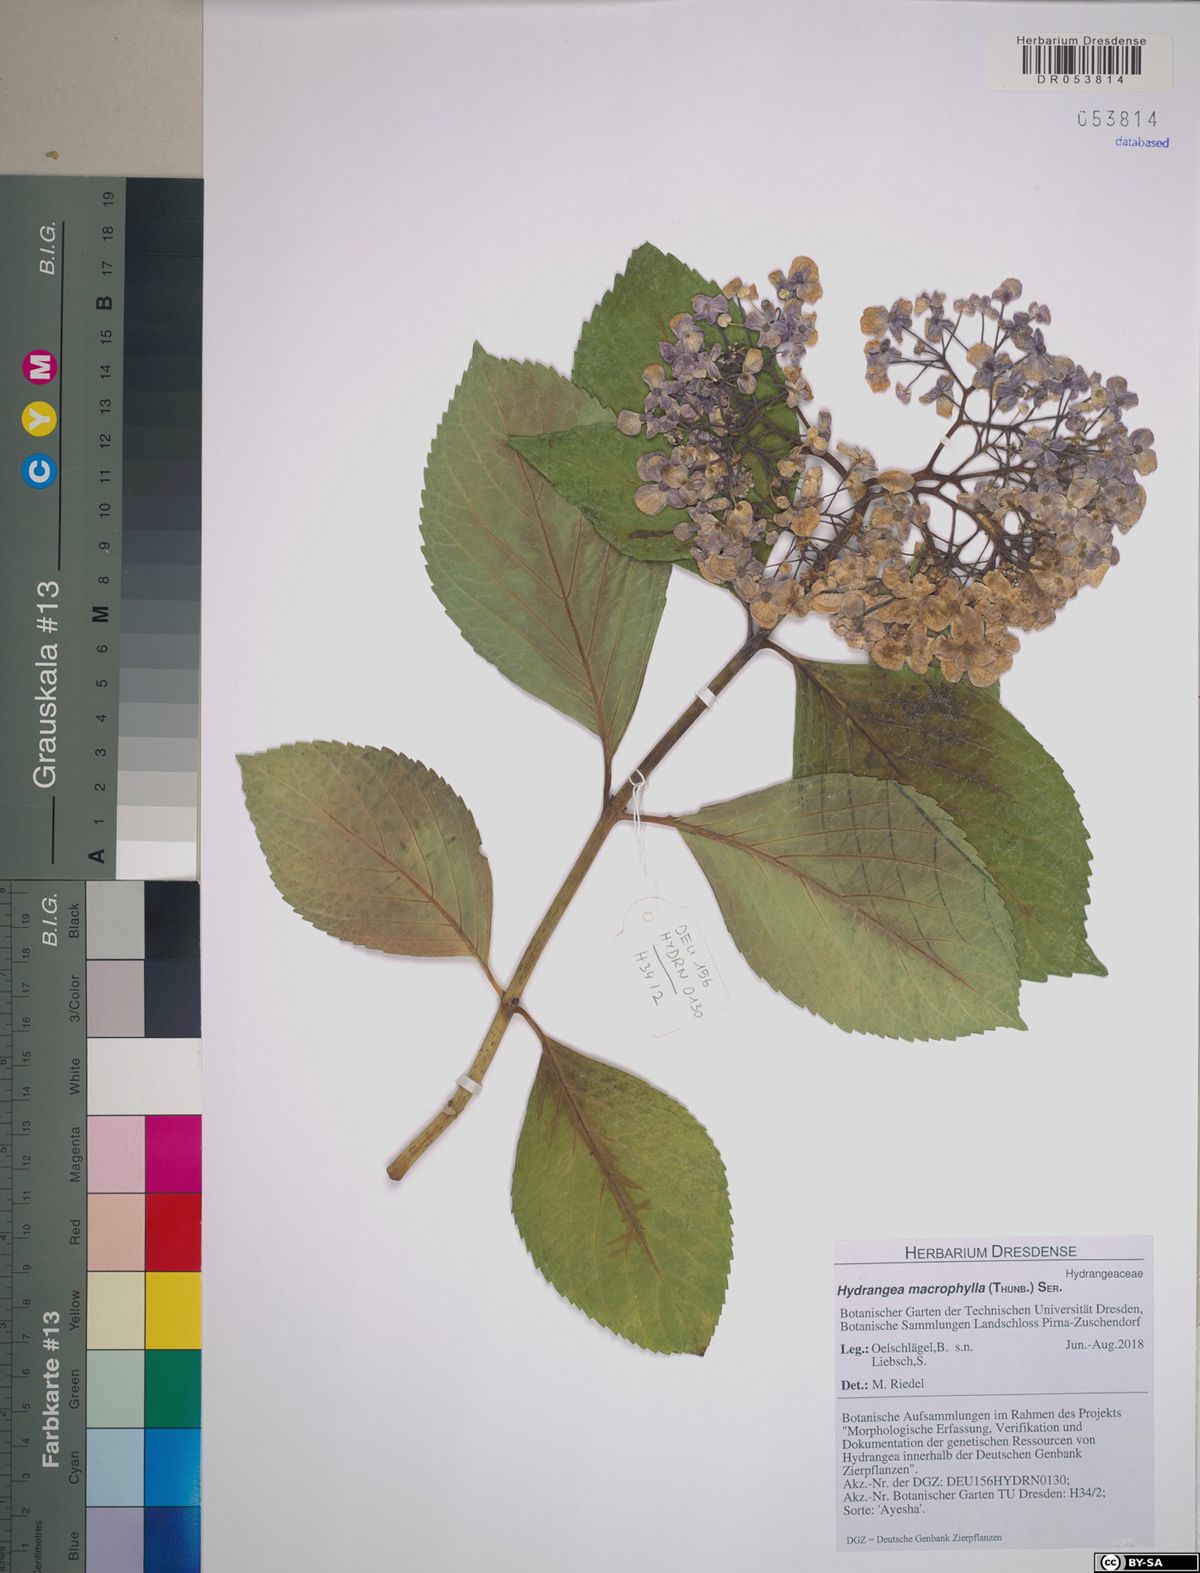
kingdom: Plantae
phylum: Tracheophyta
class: Magnoliopsida
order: Cornales
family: Hydrangeaceae
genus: Hydrangea
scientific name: Hydrangea macrophylla
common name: Hydrangea
